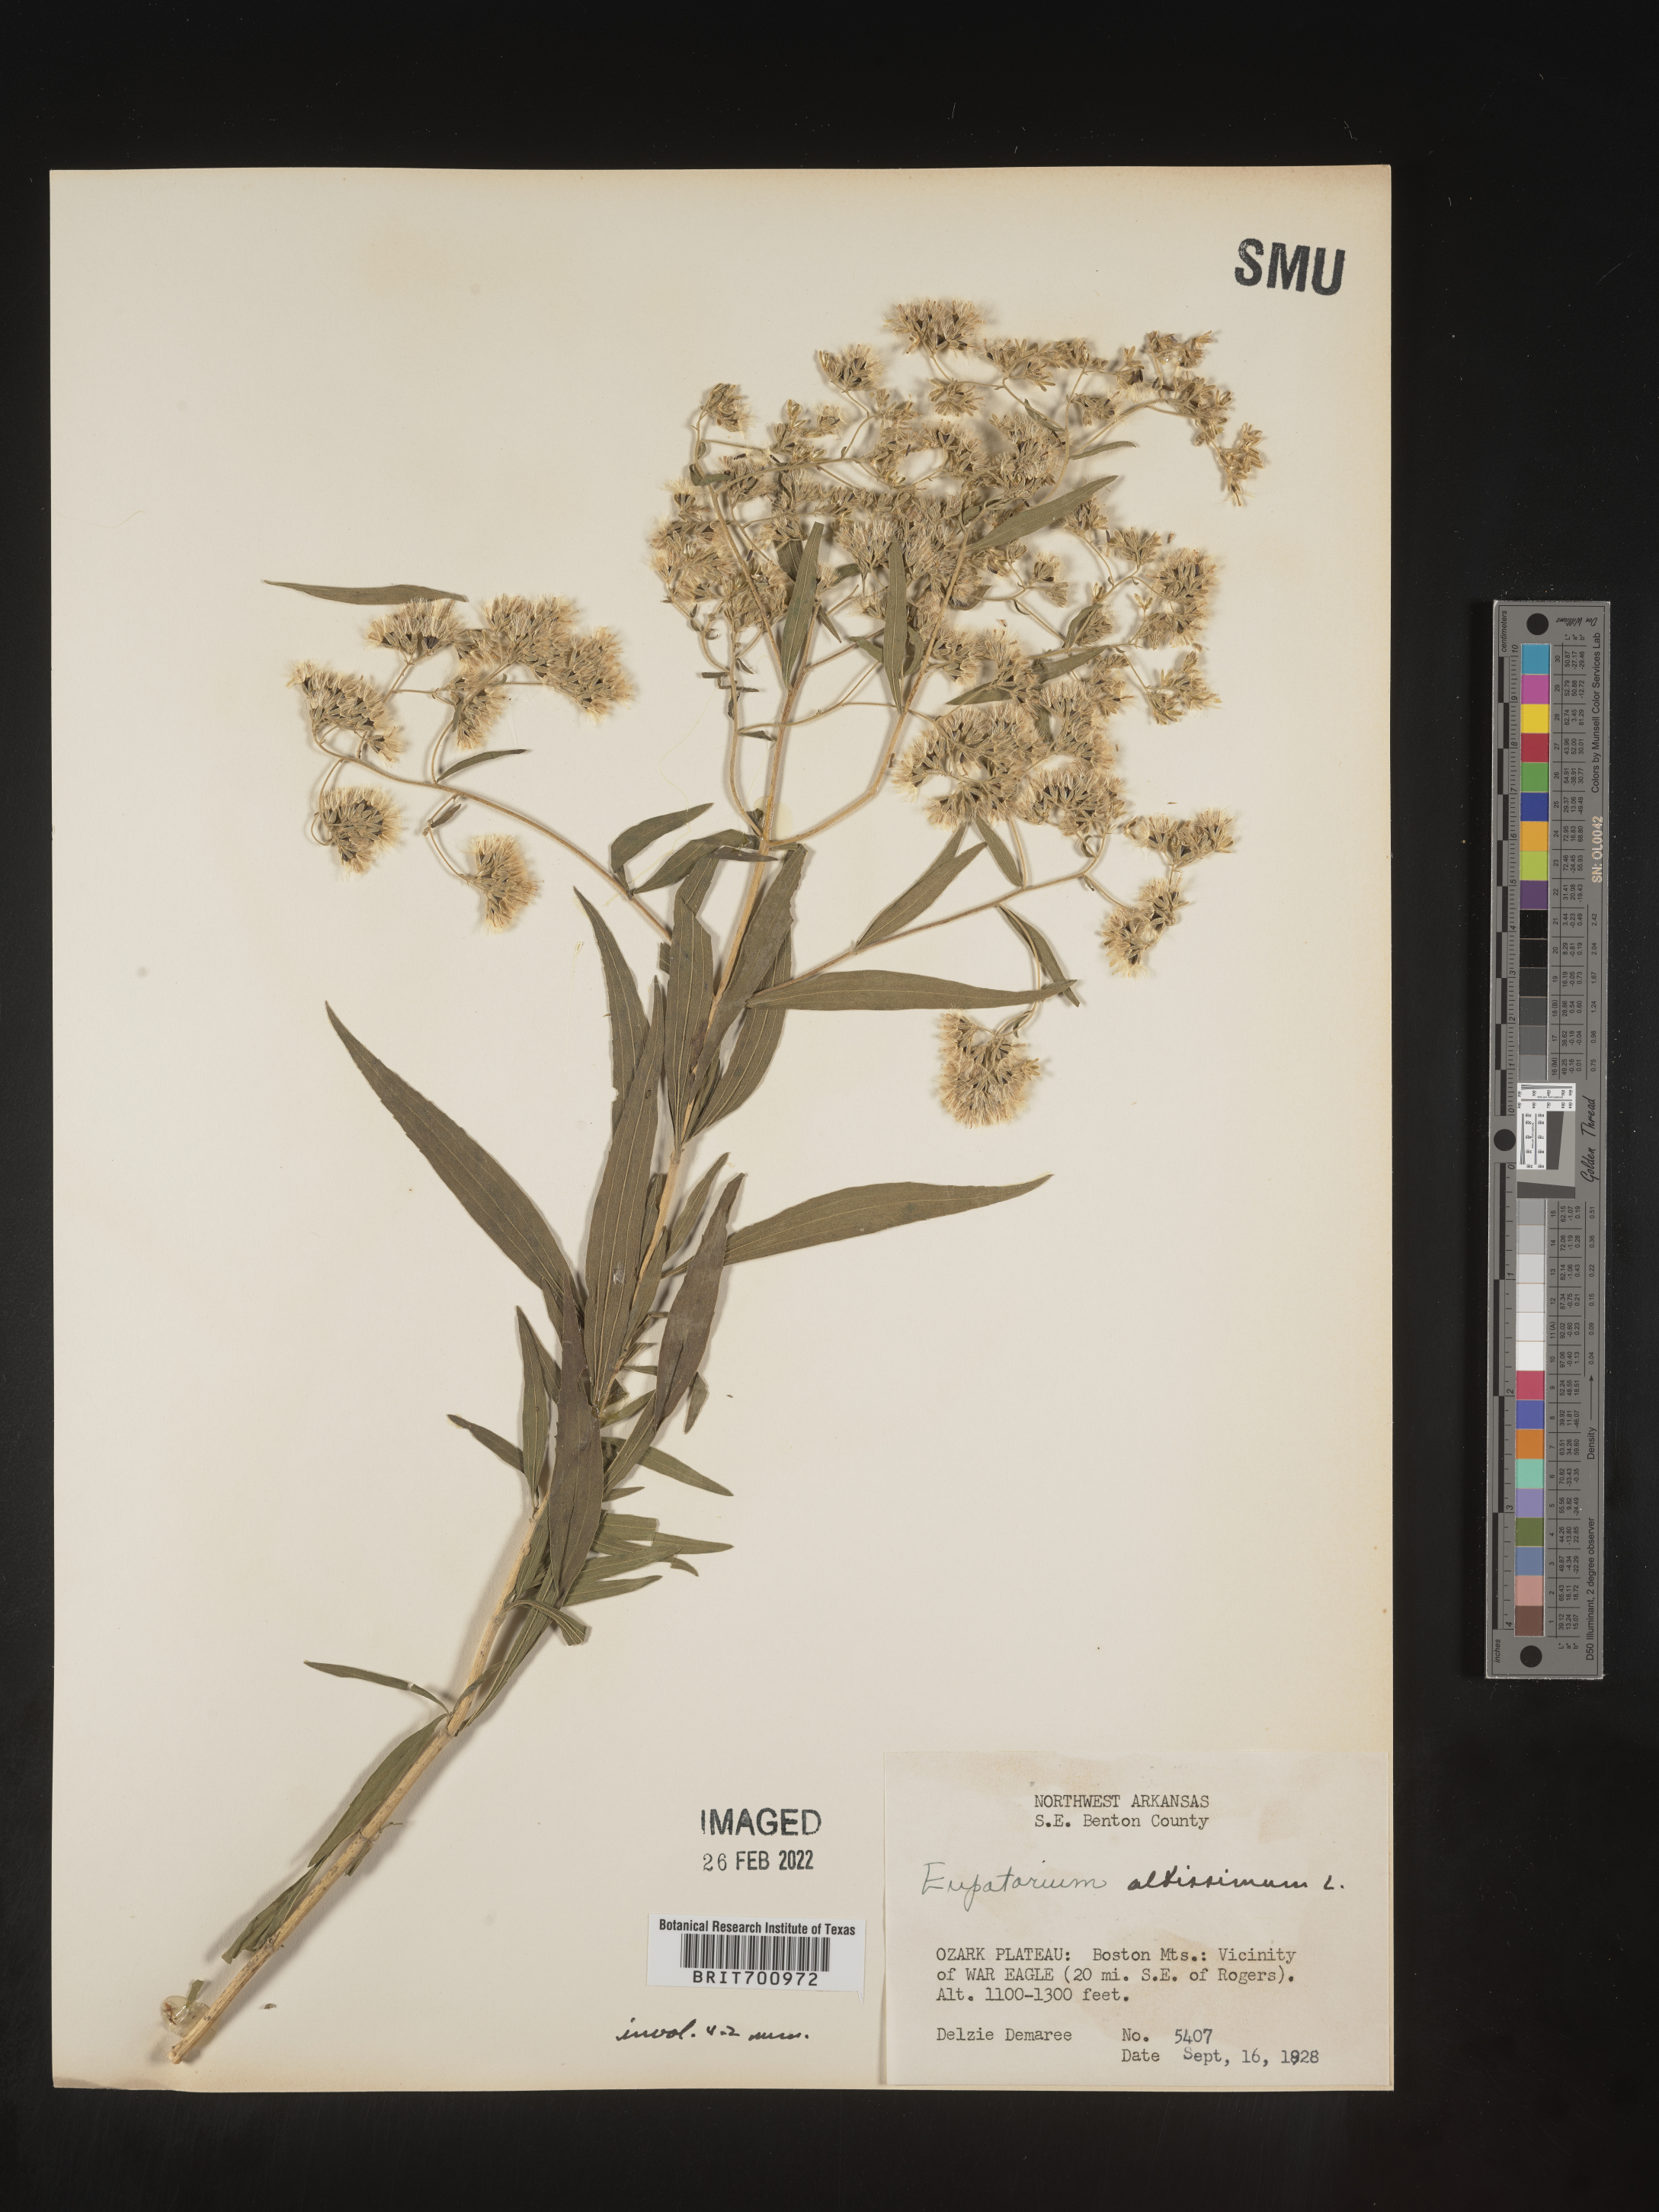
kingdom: Plantae
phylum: Tracheophyta
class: Magnoliopsida
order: Asterales
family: Asteraceae
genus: Eupatorium
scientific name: Eupatorium altissimum
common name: Tall thoroughwort
